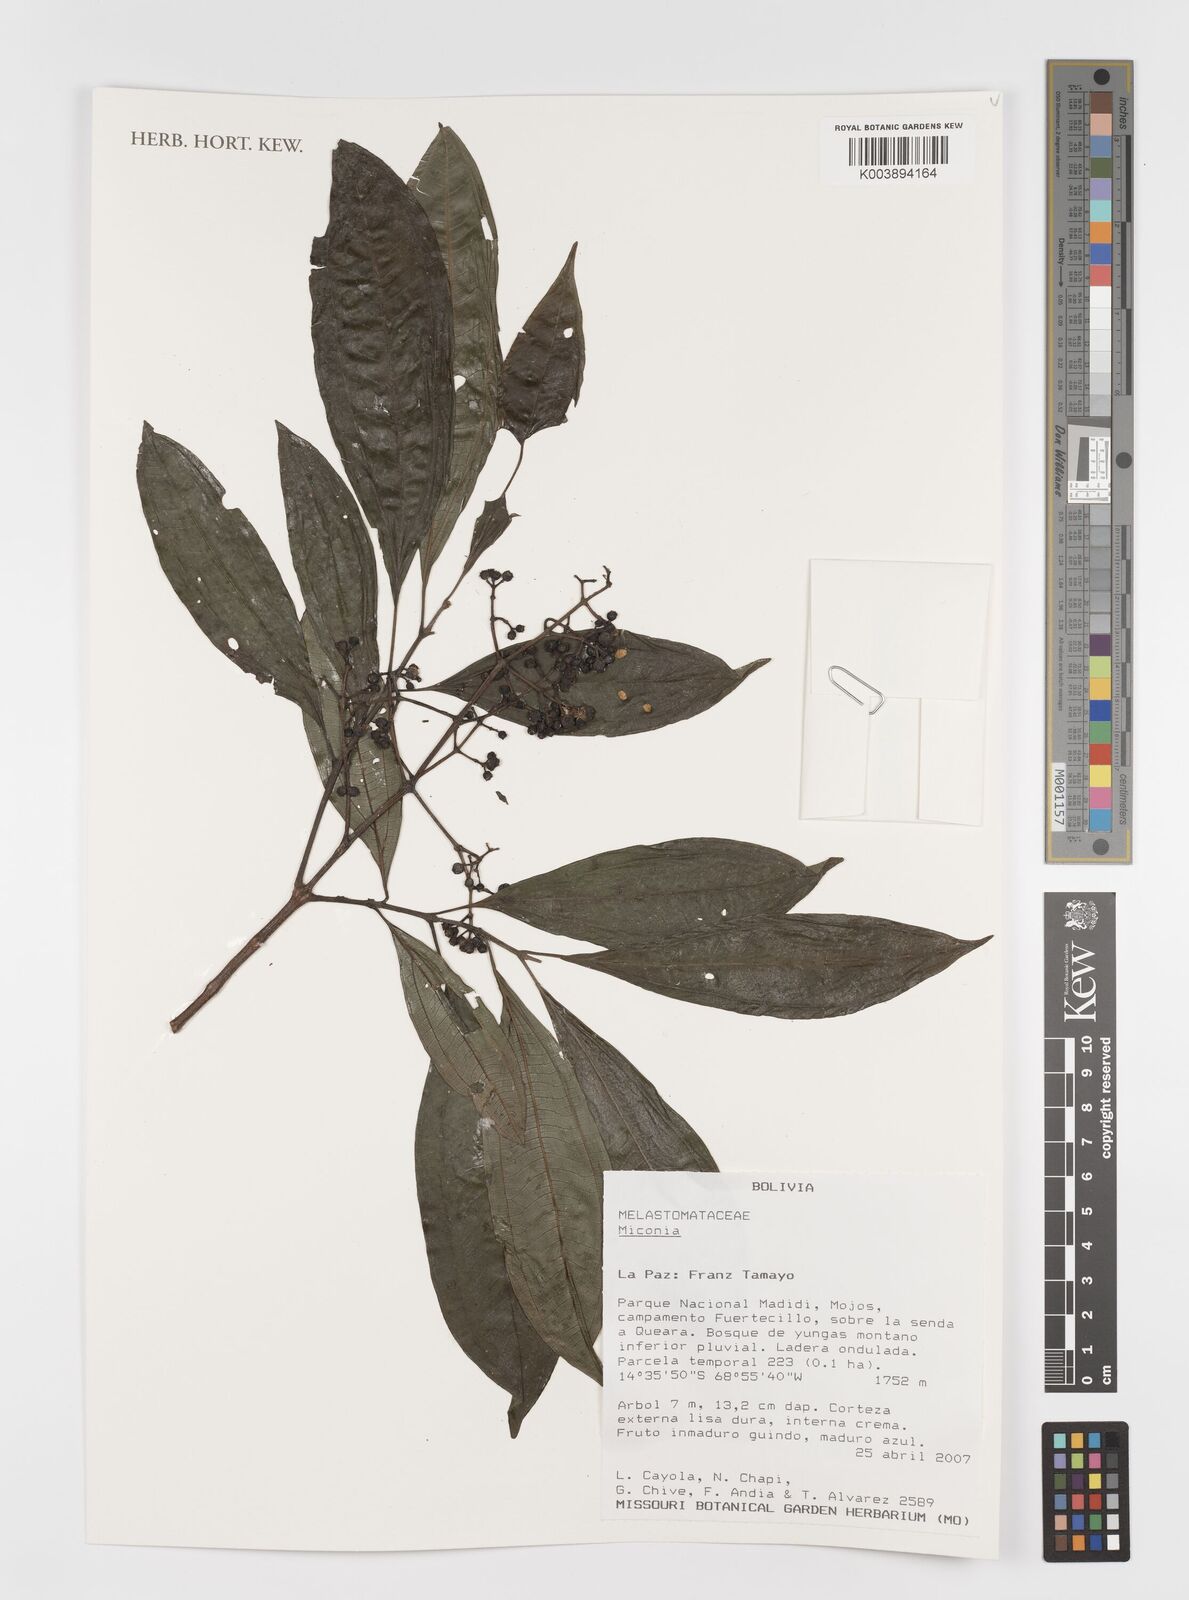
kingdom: Plantae
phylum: Tracheophyta
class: Magnoliopsida
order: Myrtales
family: Melastomataceae
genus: Miconia
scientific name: Miconia
